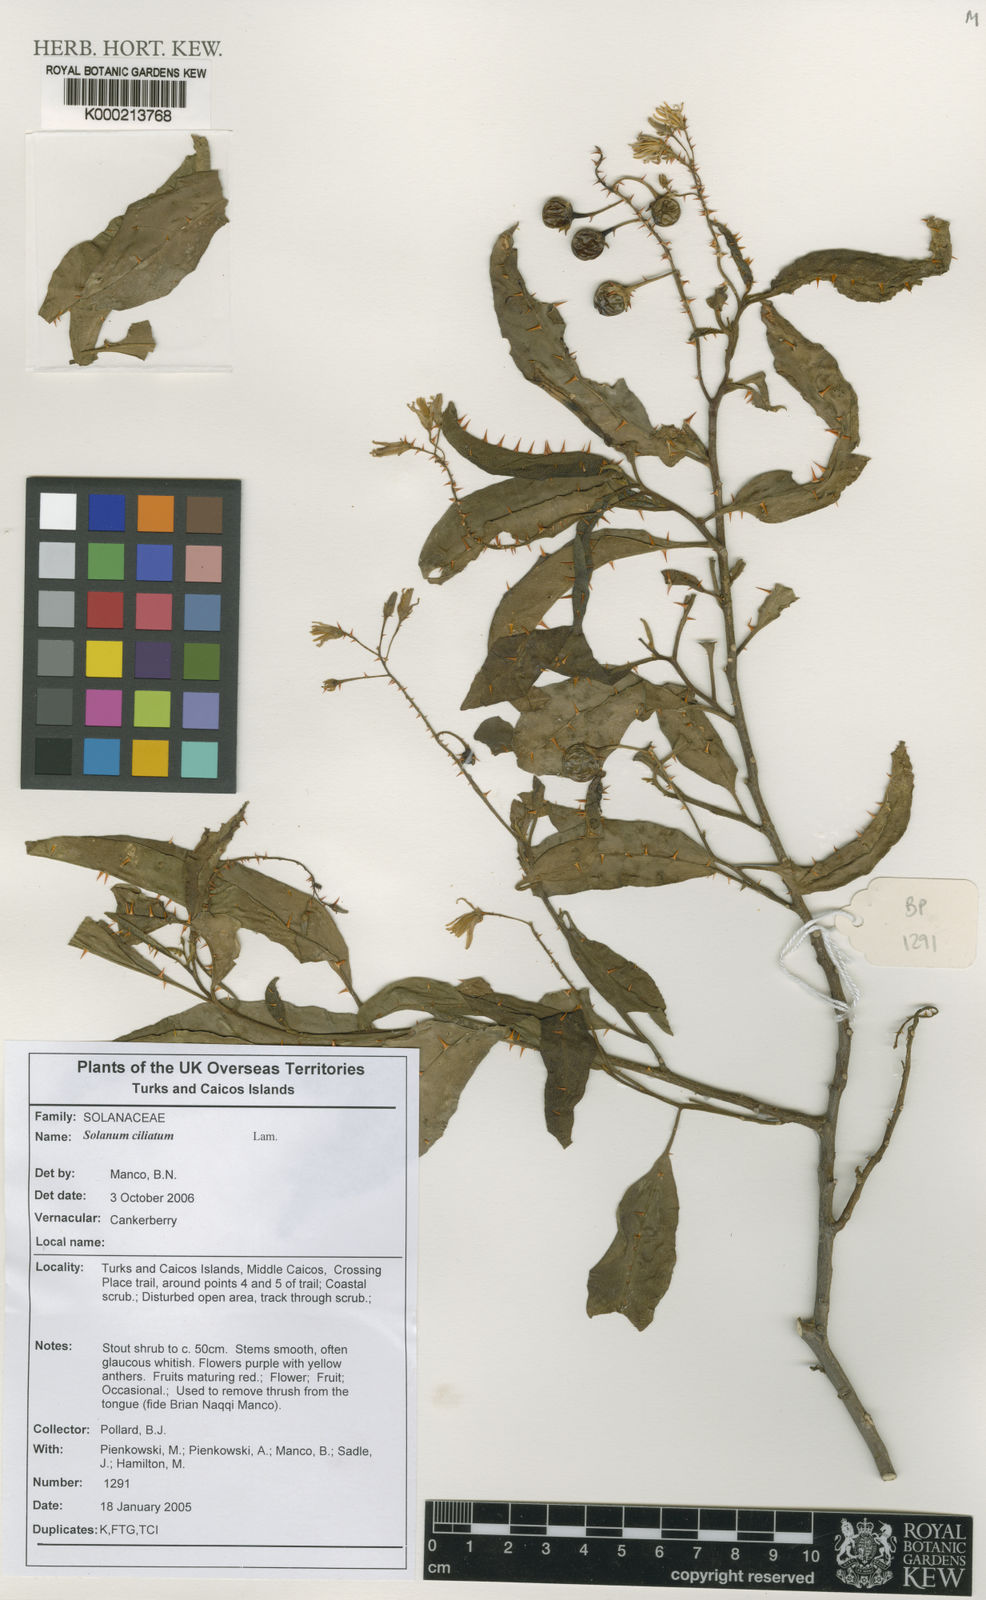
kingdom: Plantae
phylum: Tracheophyta
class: Magnoliopsida
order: Solanales
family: Solanaceae
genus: Solanum
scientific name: Solanum bahamense
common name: Canker-berry
